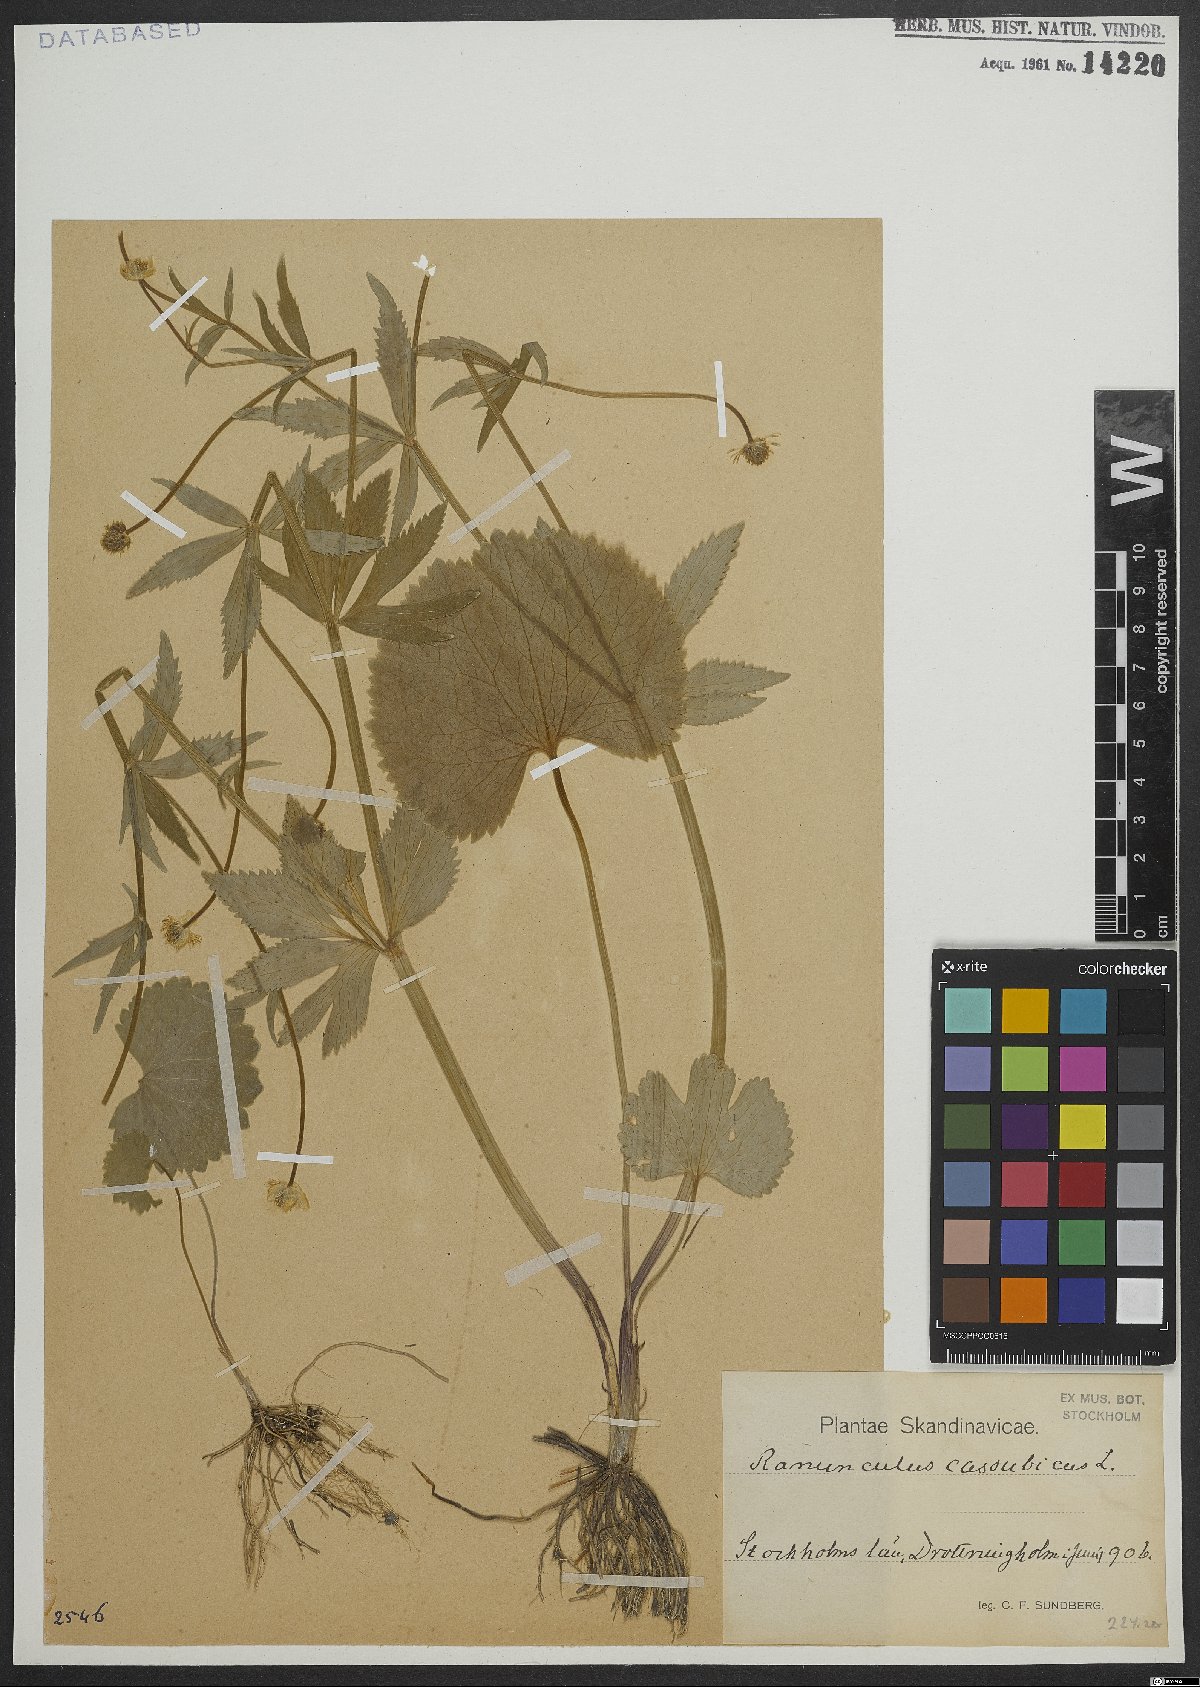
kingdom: Plantae
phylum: Tracheophyta
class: Magnoliopsida
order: Ranunculales
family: Ranunculaceae
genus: Ranunculus
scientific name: Ranunculus cassubicus
